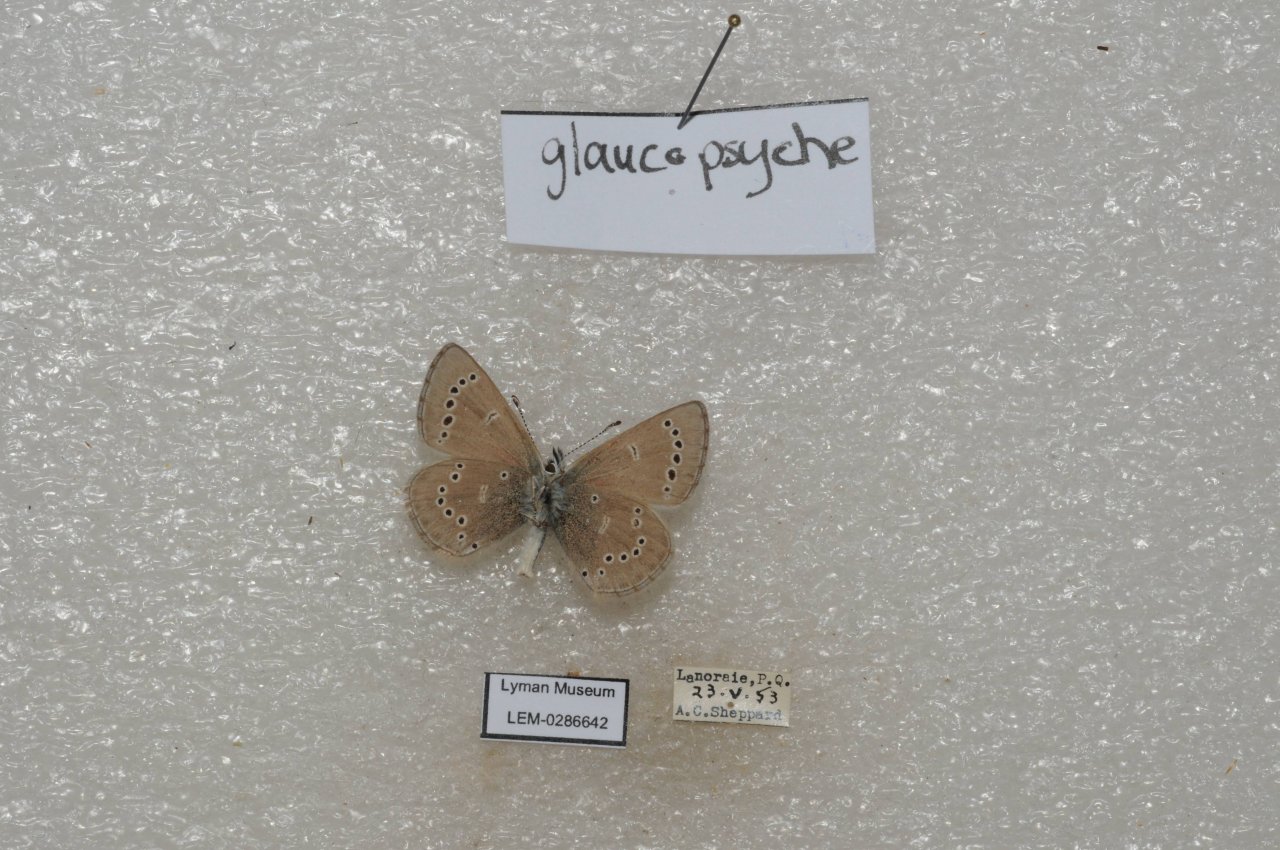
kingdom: Animalia
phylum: Arthropoda
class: Insecta
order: Lepidoptera
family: Lycaenidae
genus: Glaucopsyche
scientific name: Glaucopsyche lygdamus
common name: Silvery Blue
